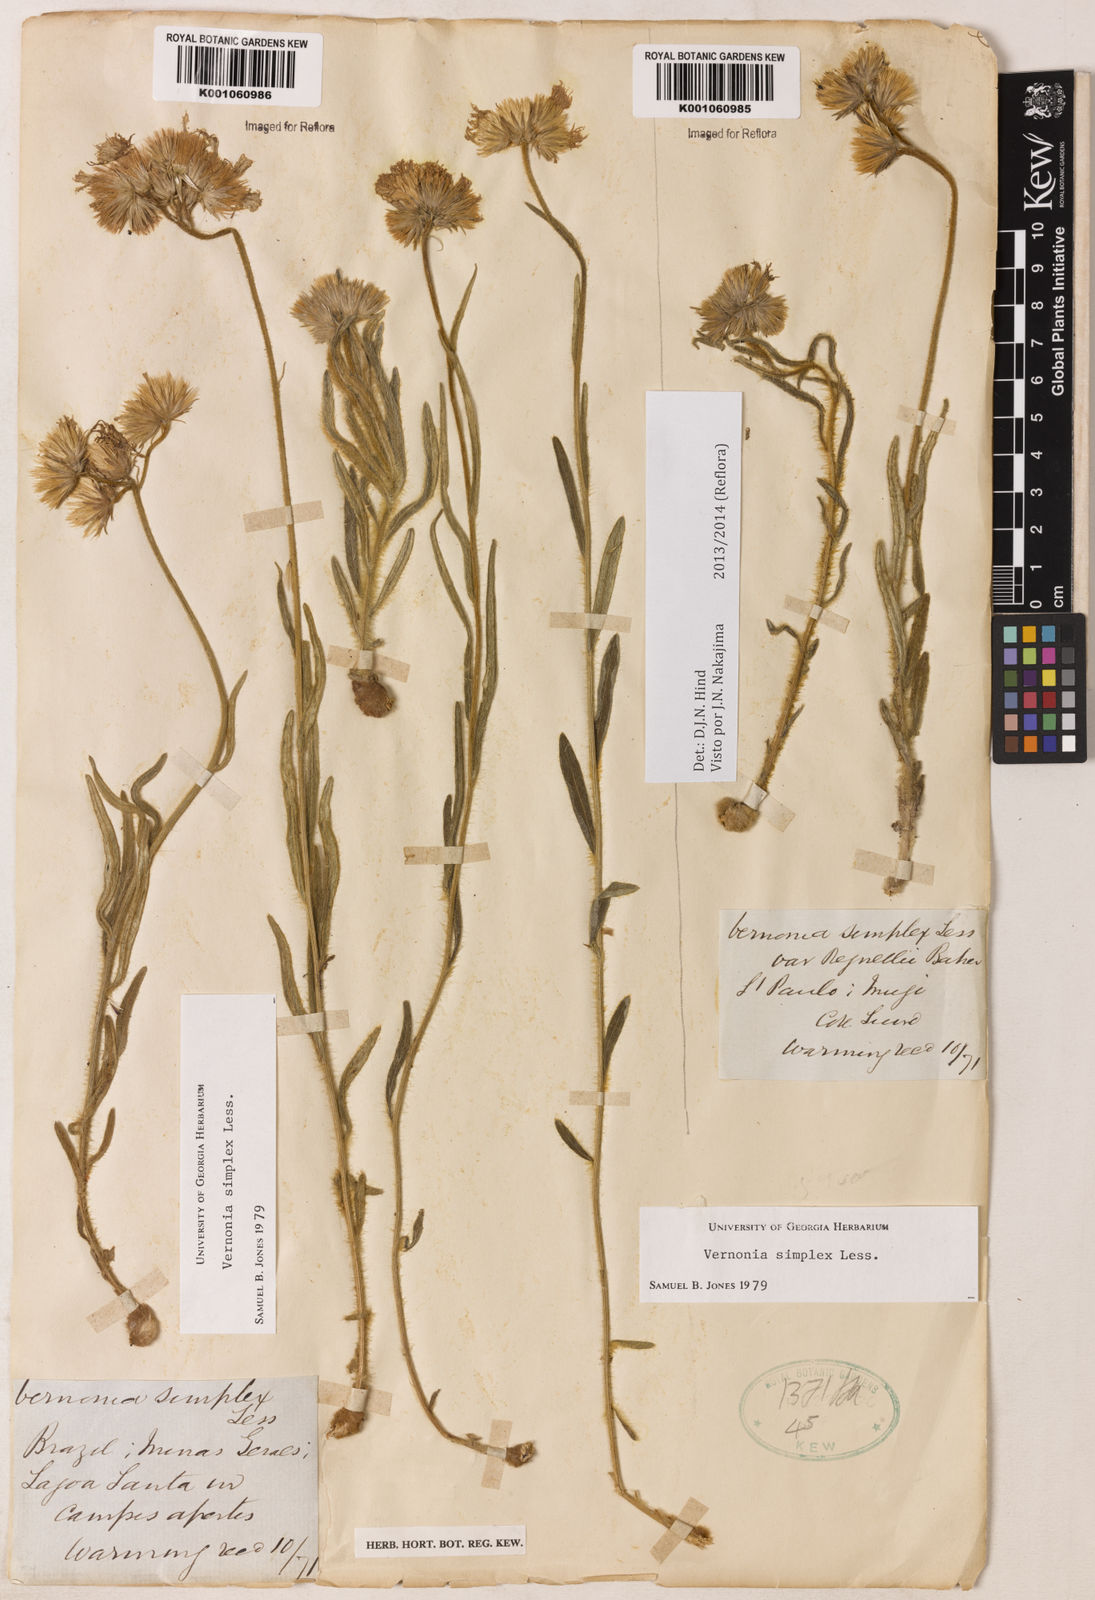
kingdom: Plantae
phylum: Tracheophyta
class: Magnoliopsida
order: Asterales
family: Asteraceae
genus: Chrysolaena
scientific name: Chrysolaena simplex
